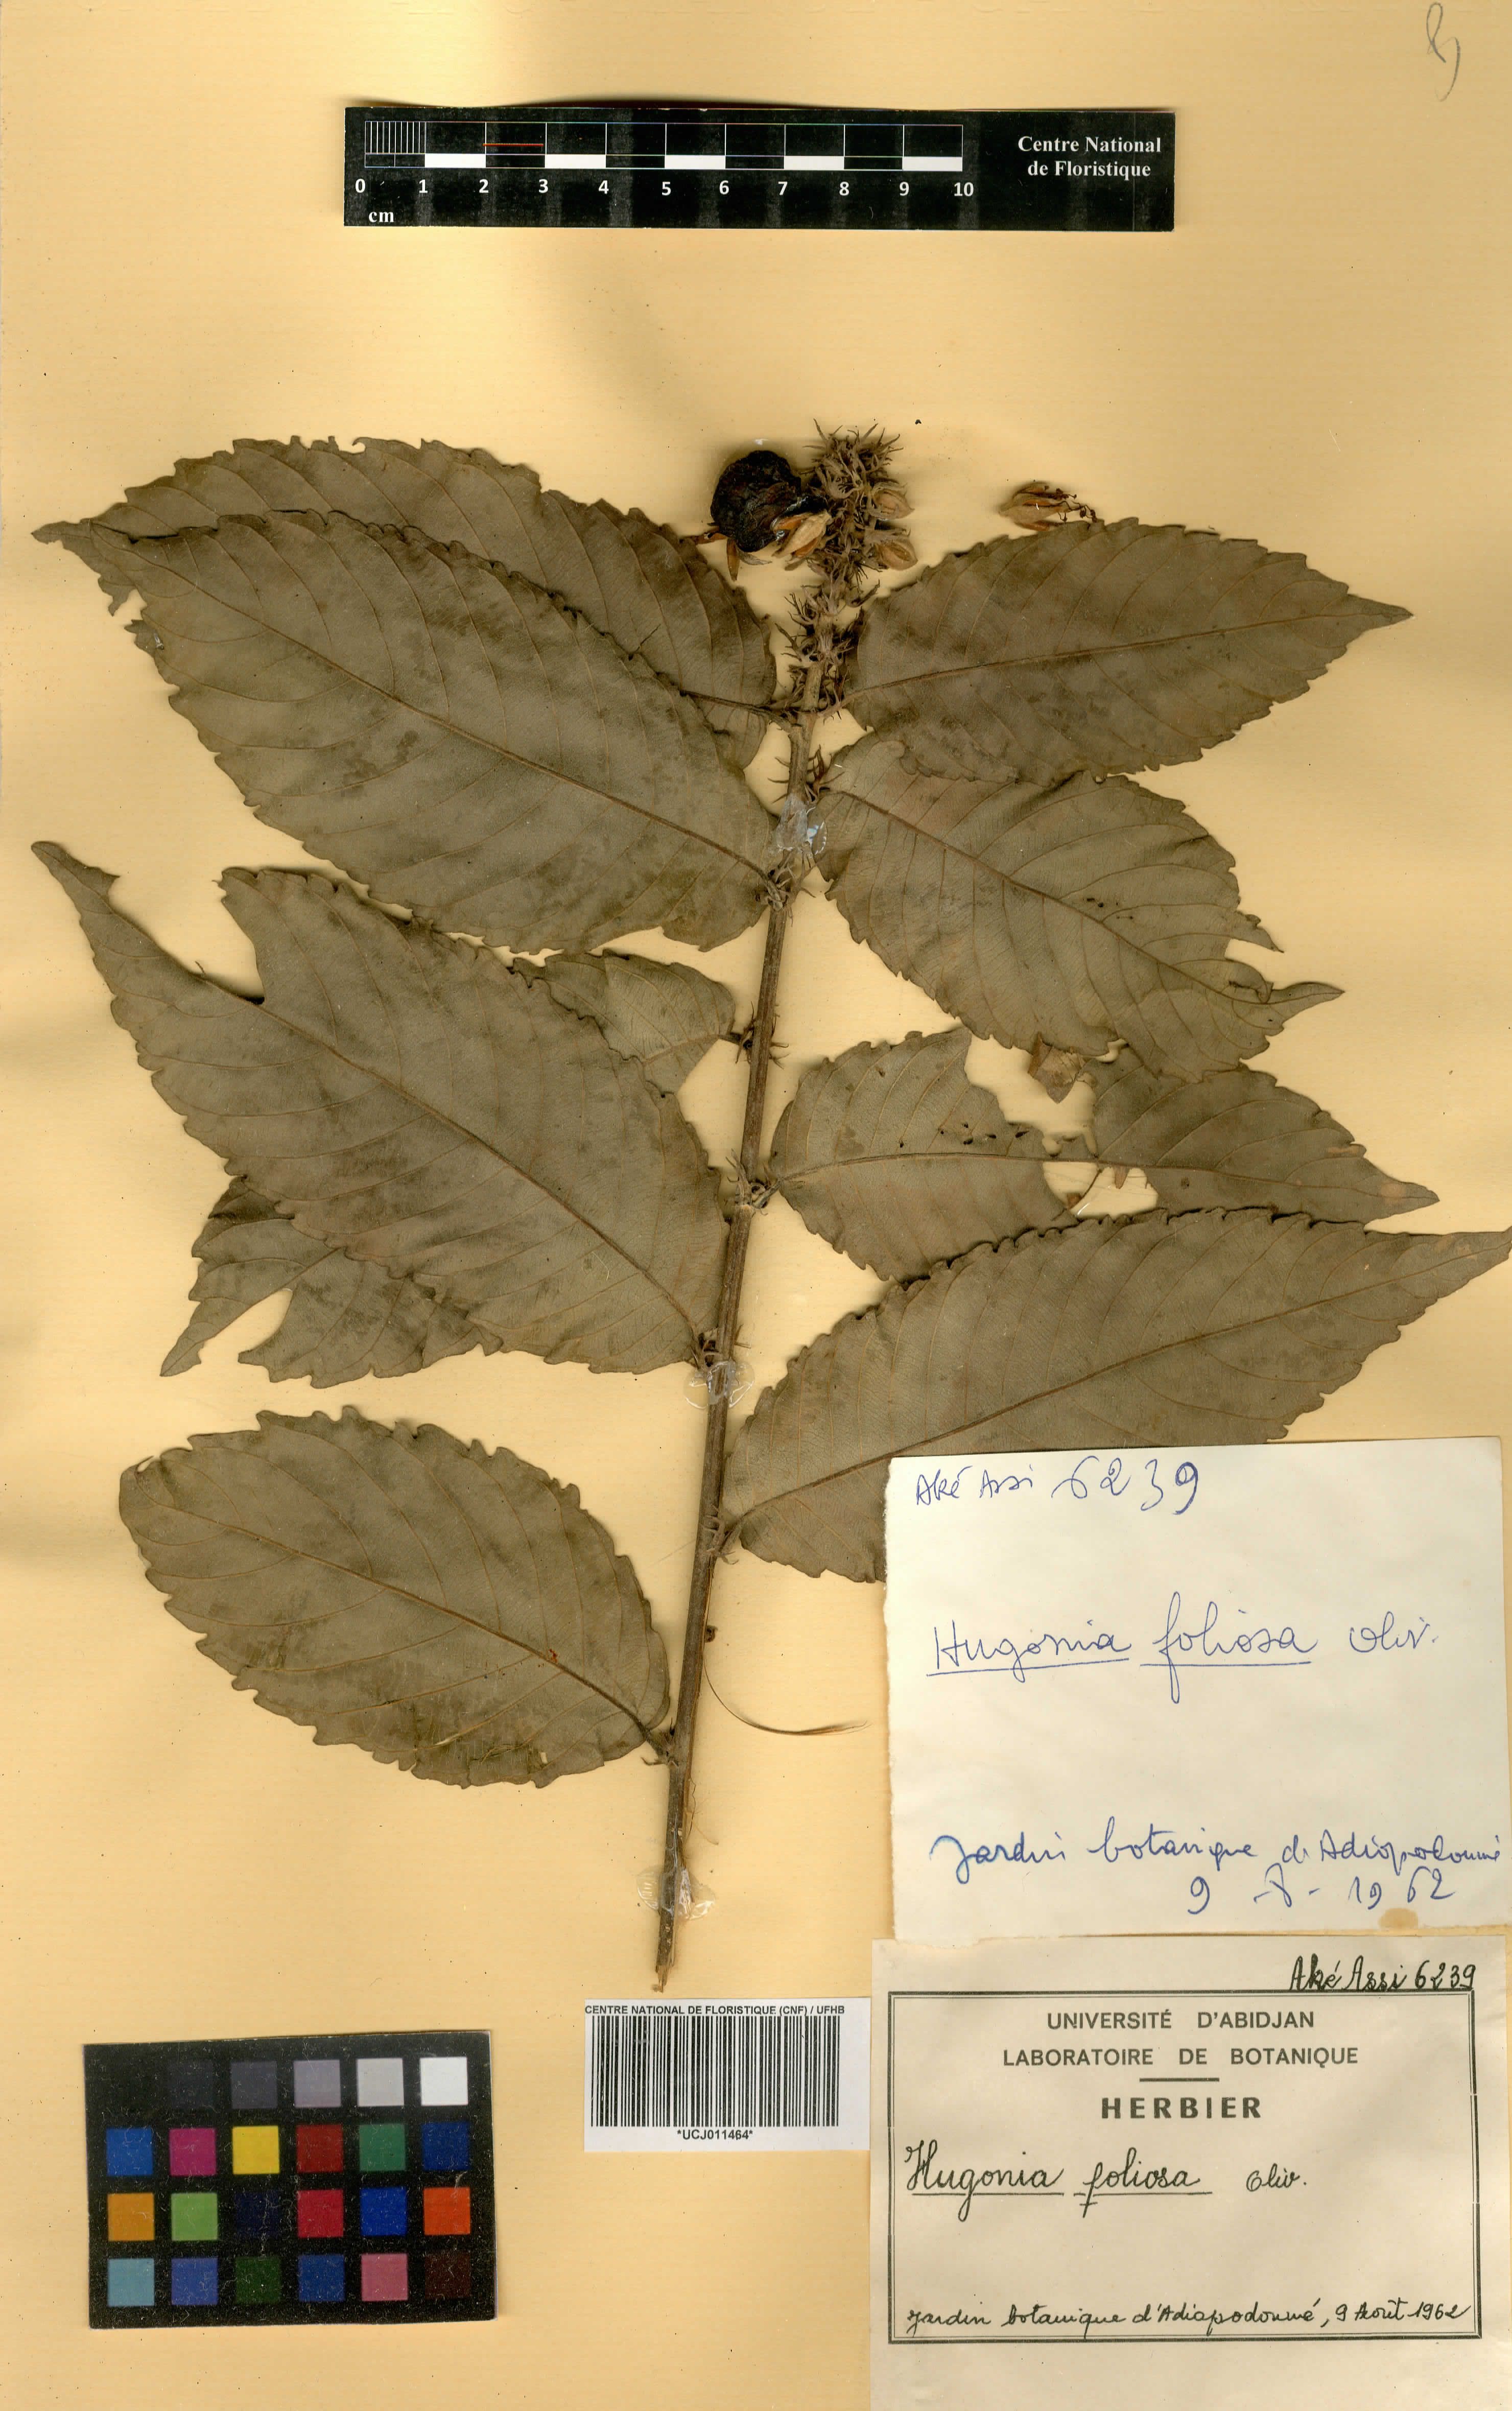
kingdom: Plantae
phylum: Tracheophyta
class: Magnoliopsida
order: Malpighiales
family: Linaceae
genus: Hugonia
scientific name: Hugonia afzelii
